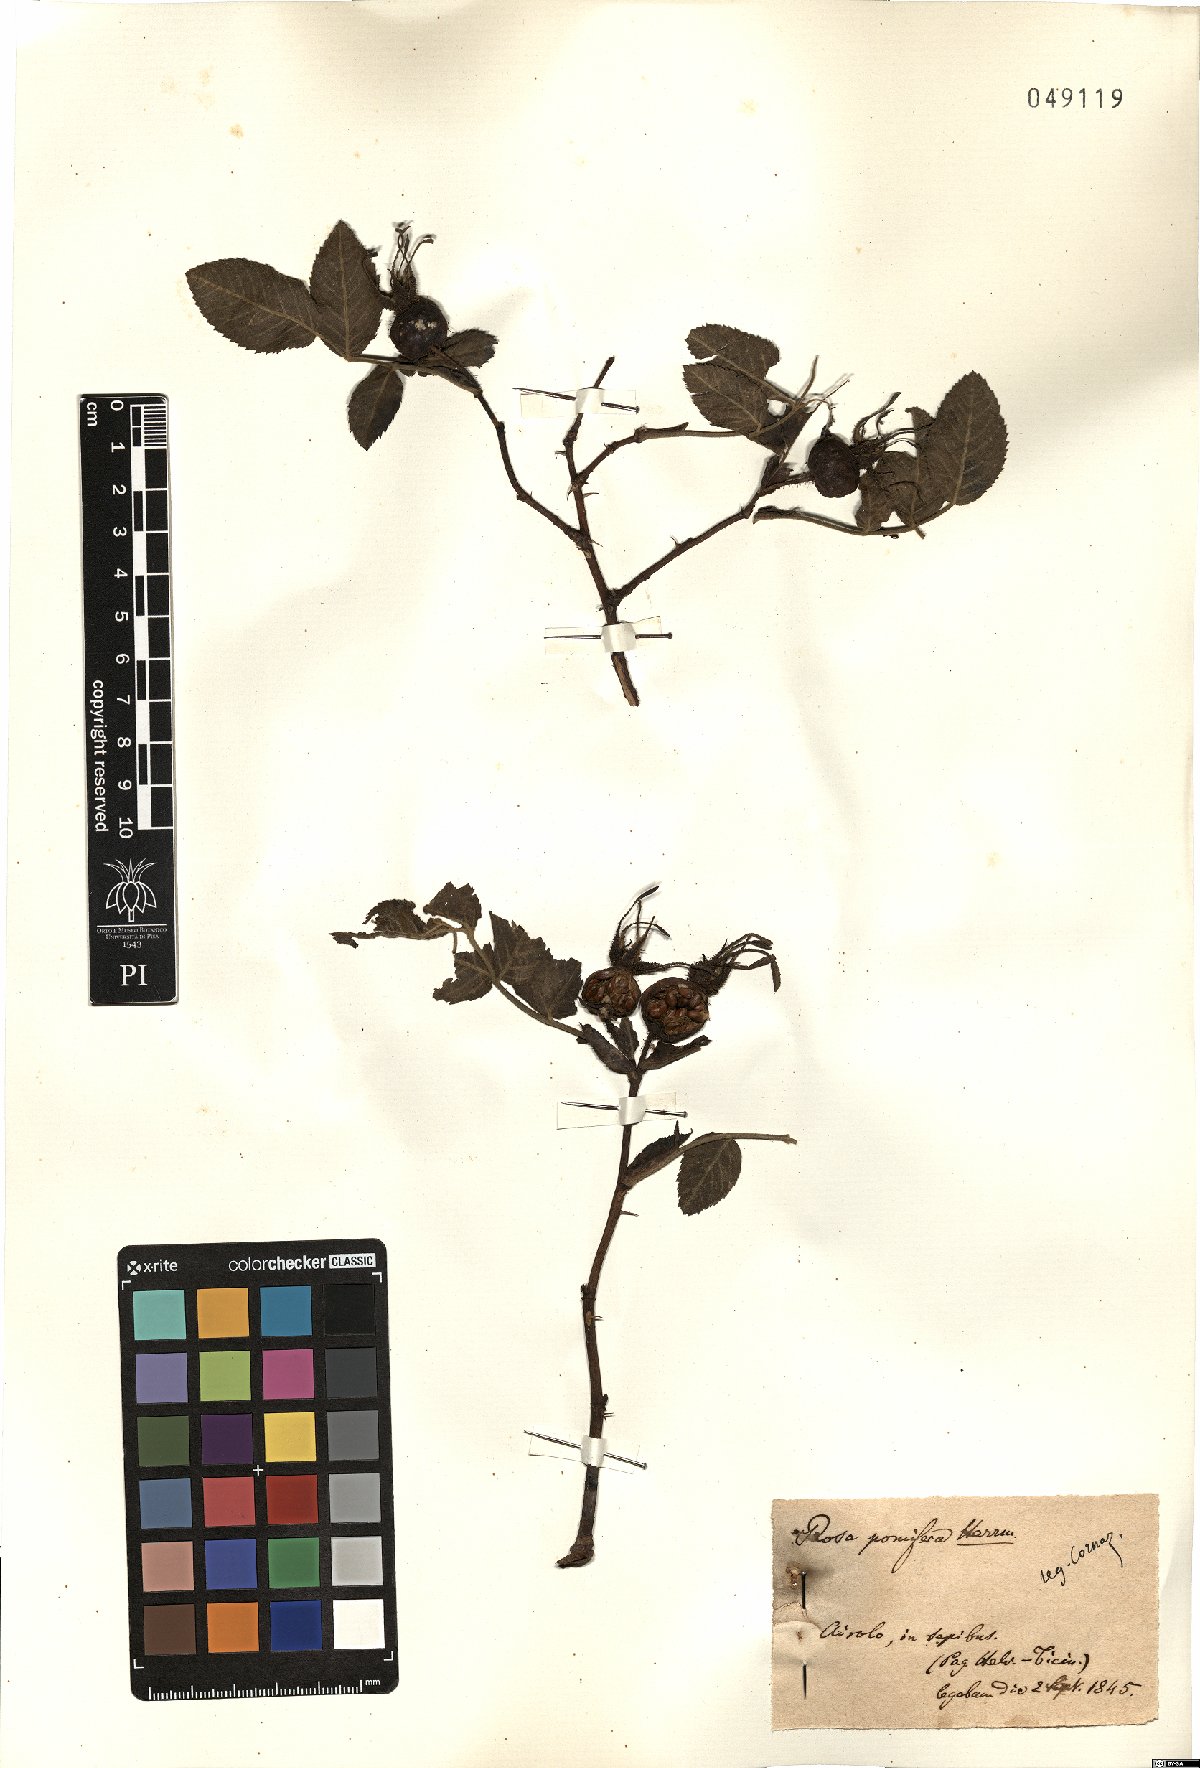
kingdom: Plantae
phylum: Tracheophyta
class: Magnoliopsida
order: Rosales
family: Rosaceae
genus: Rosa
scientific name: Rosa villosa
